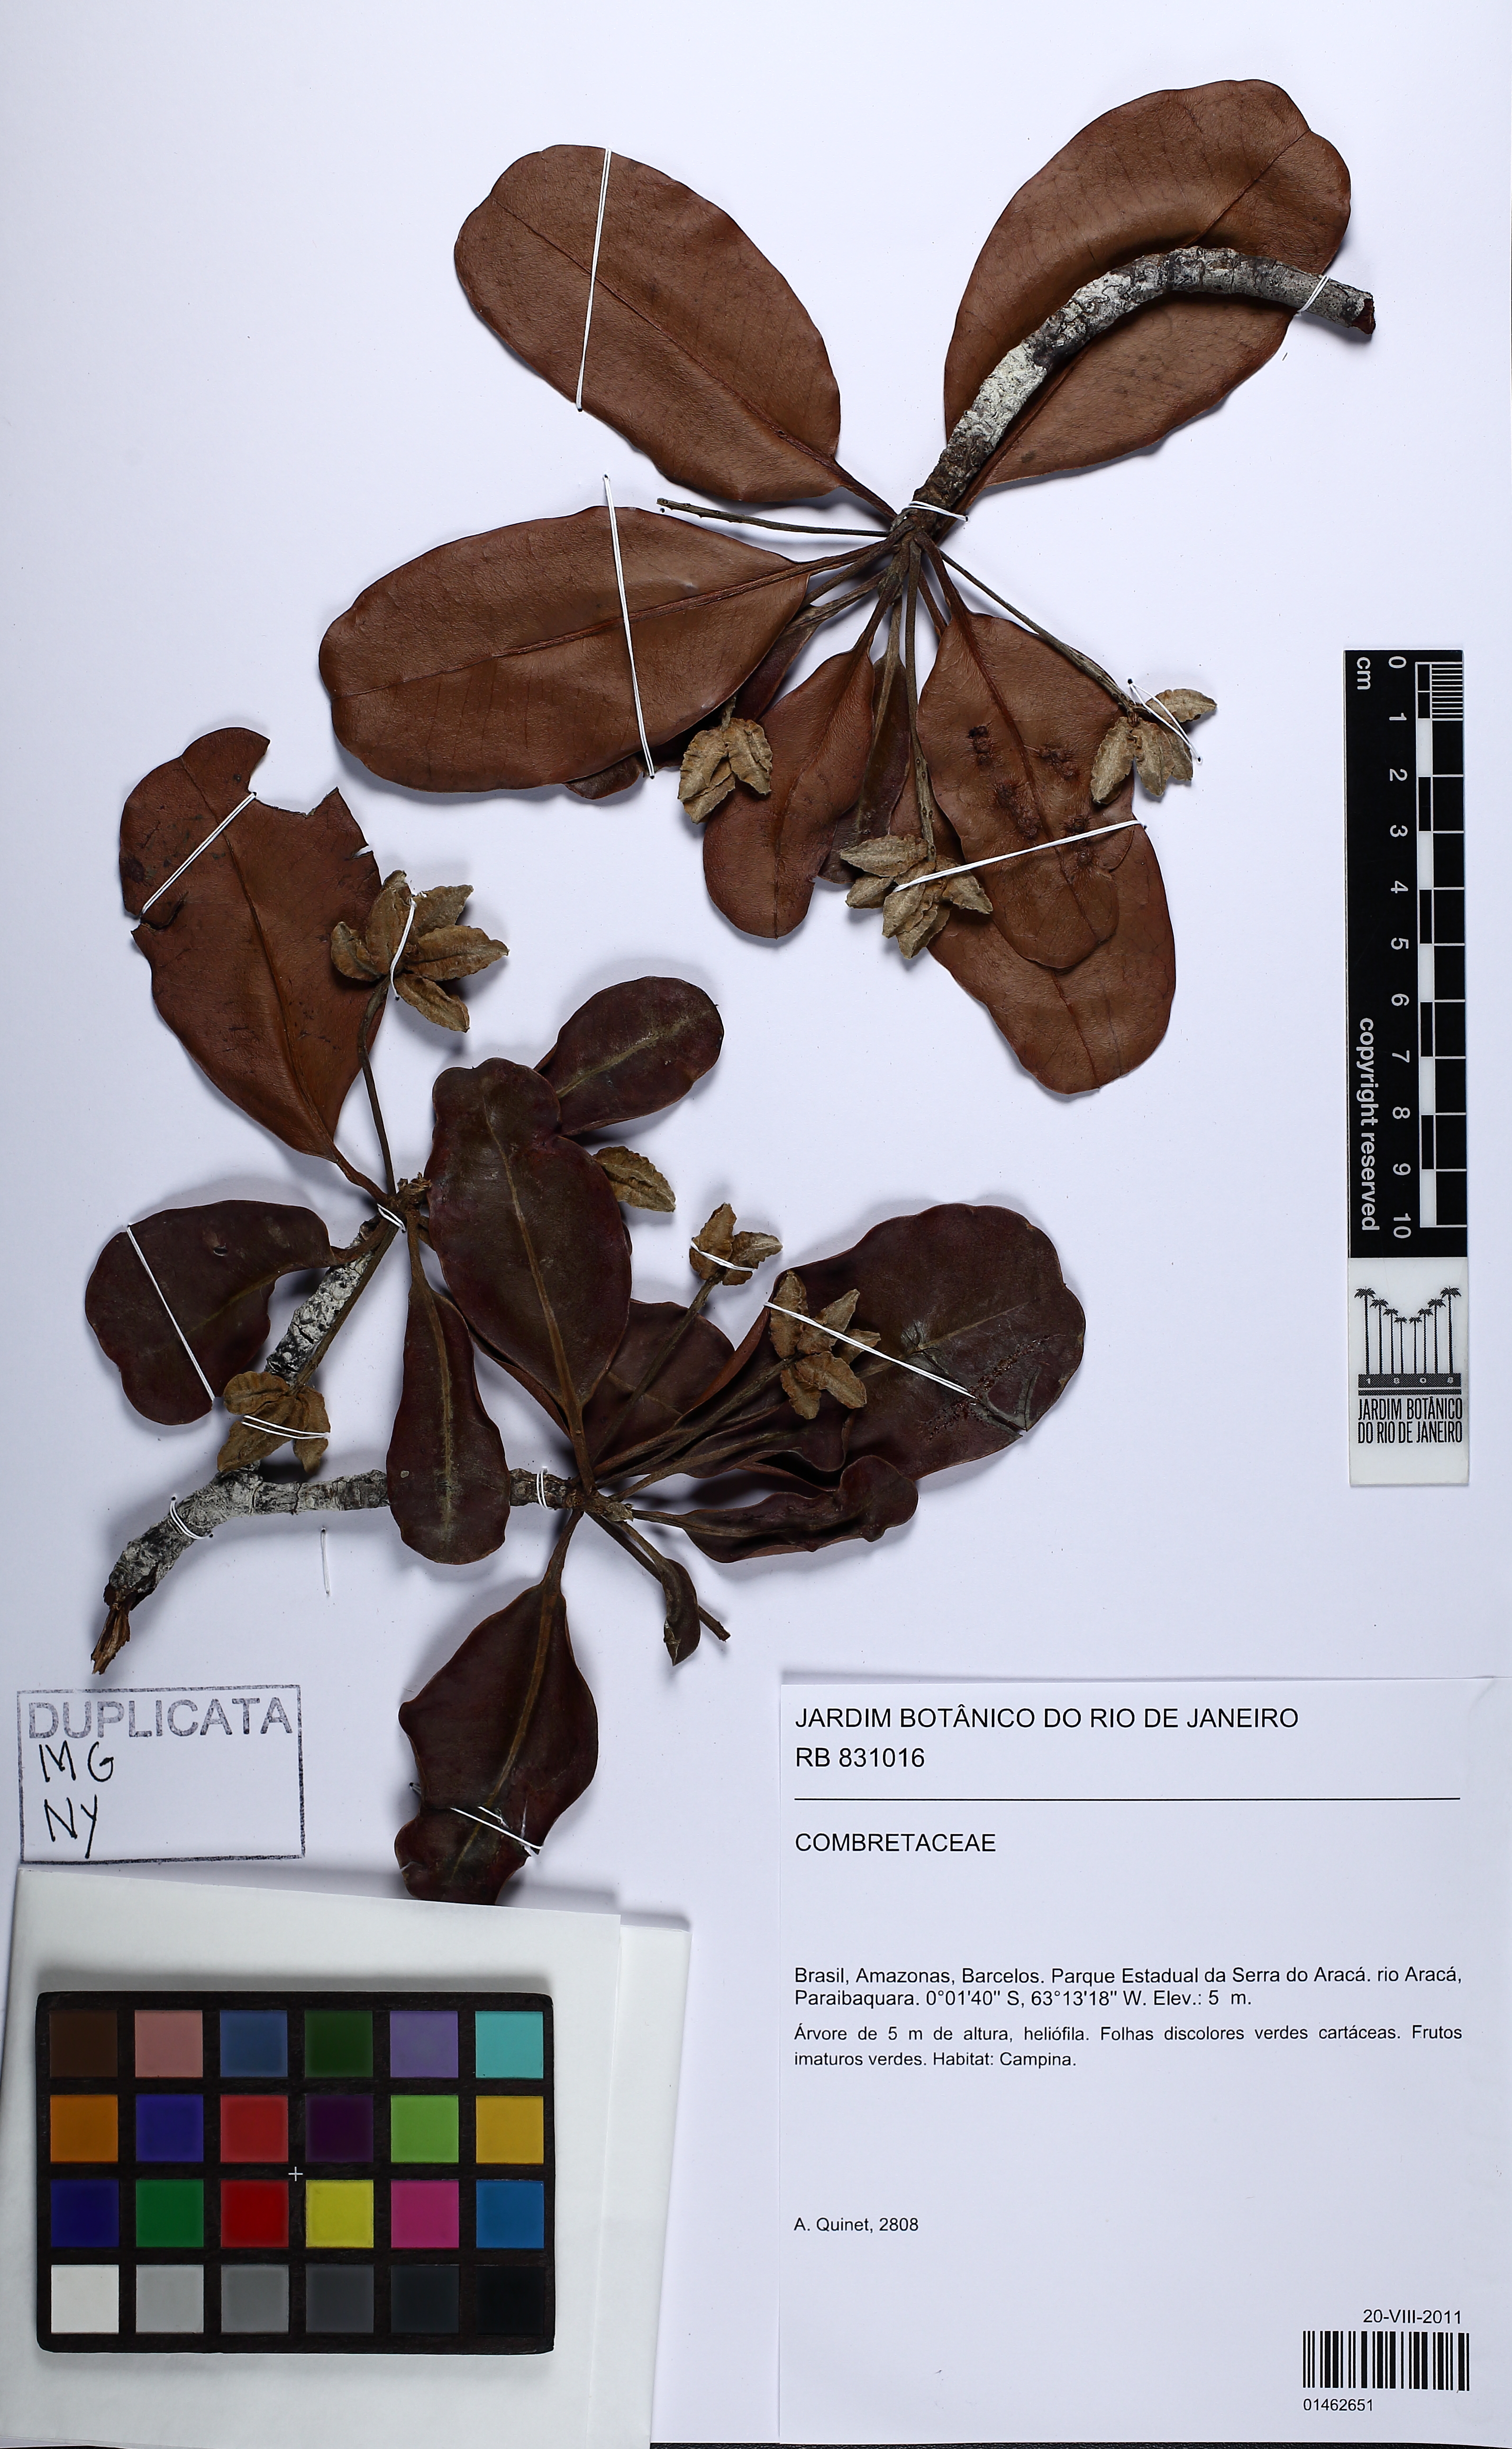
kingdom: Plantae
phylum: Tracheophyta
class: Magnoliopsida
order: Myrtales
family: Combretaceae
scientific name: Combretaceae
